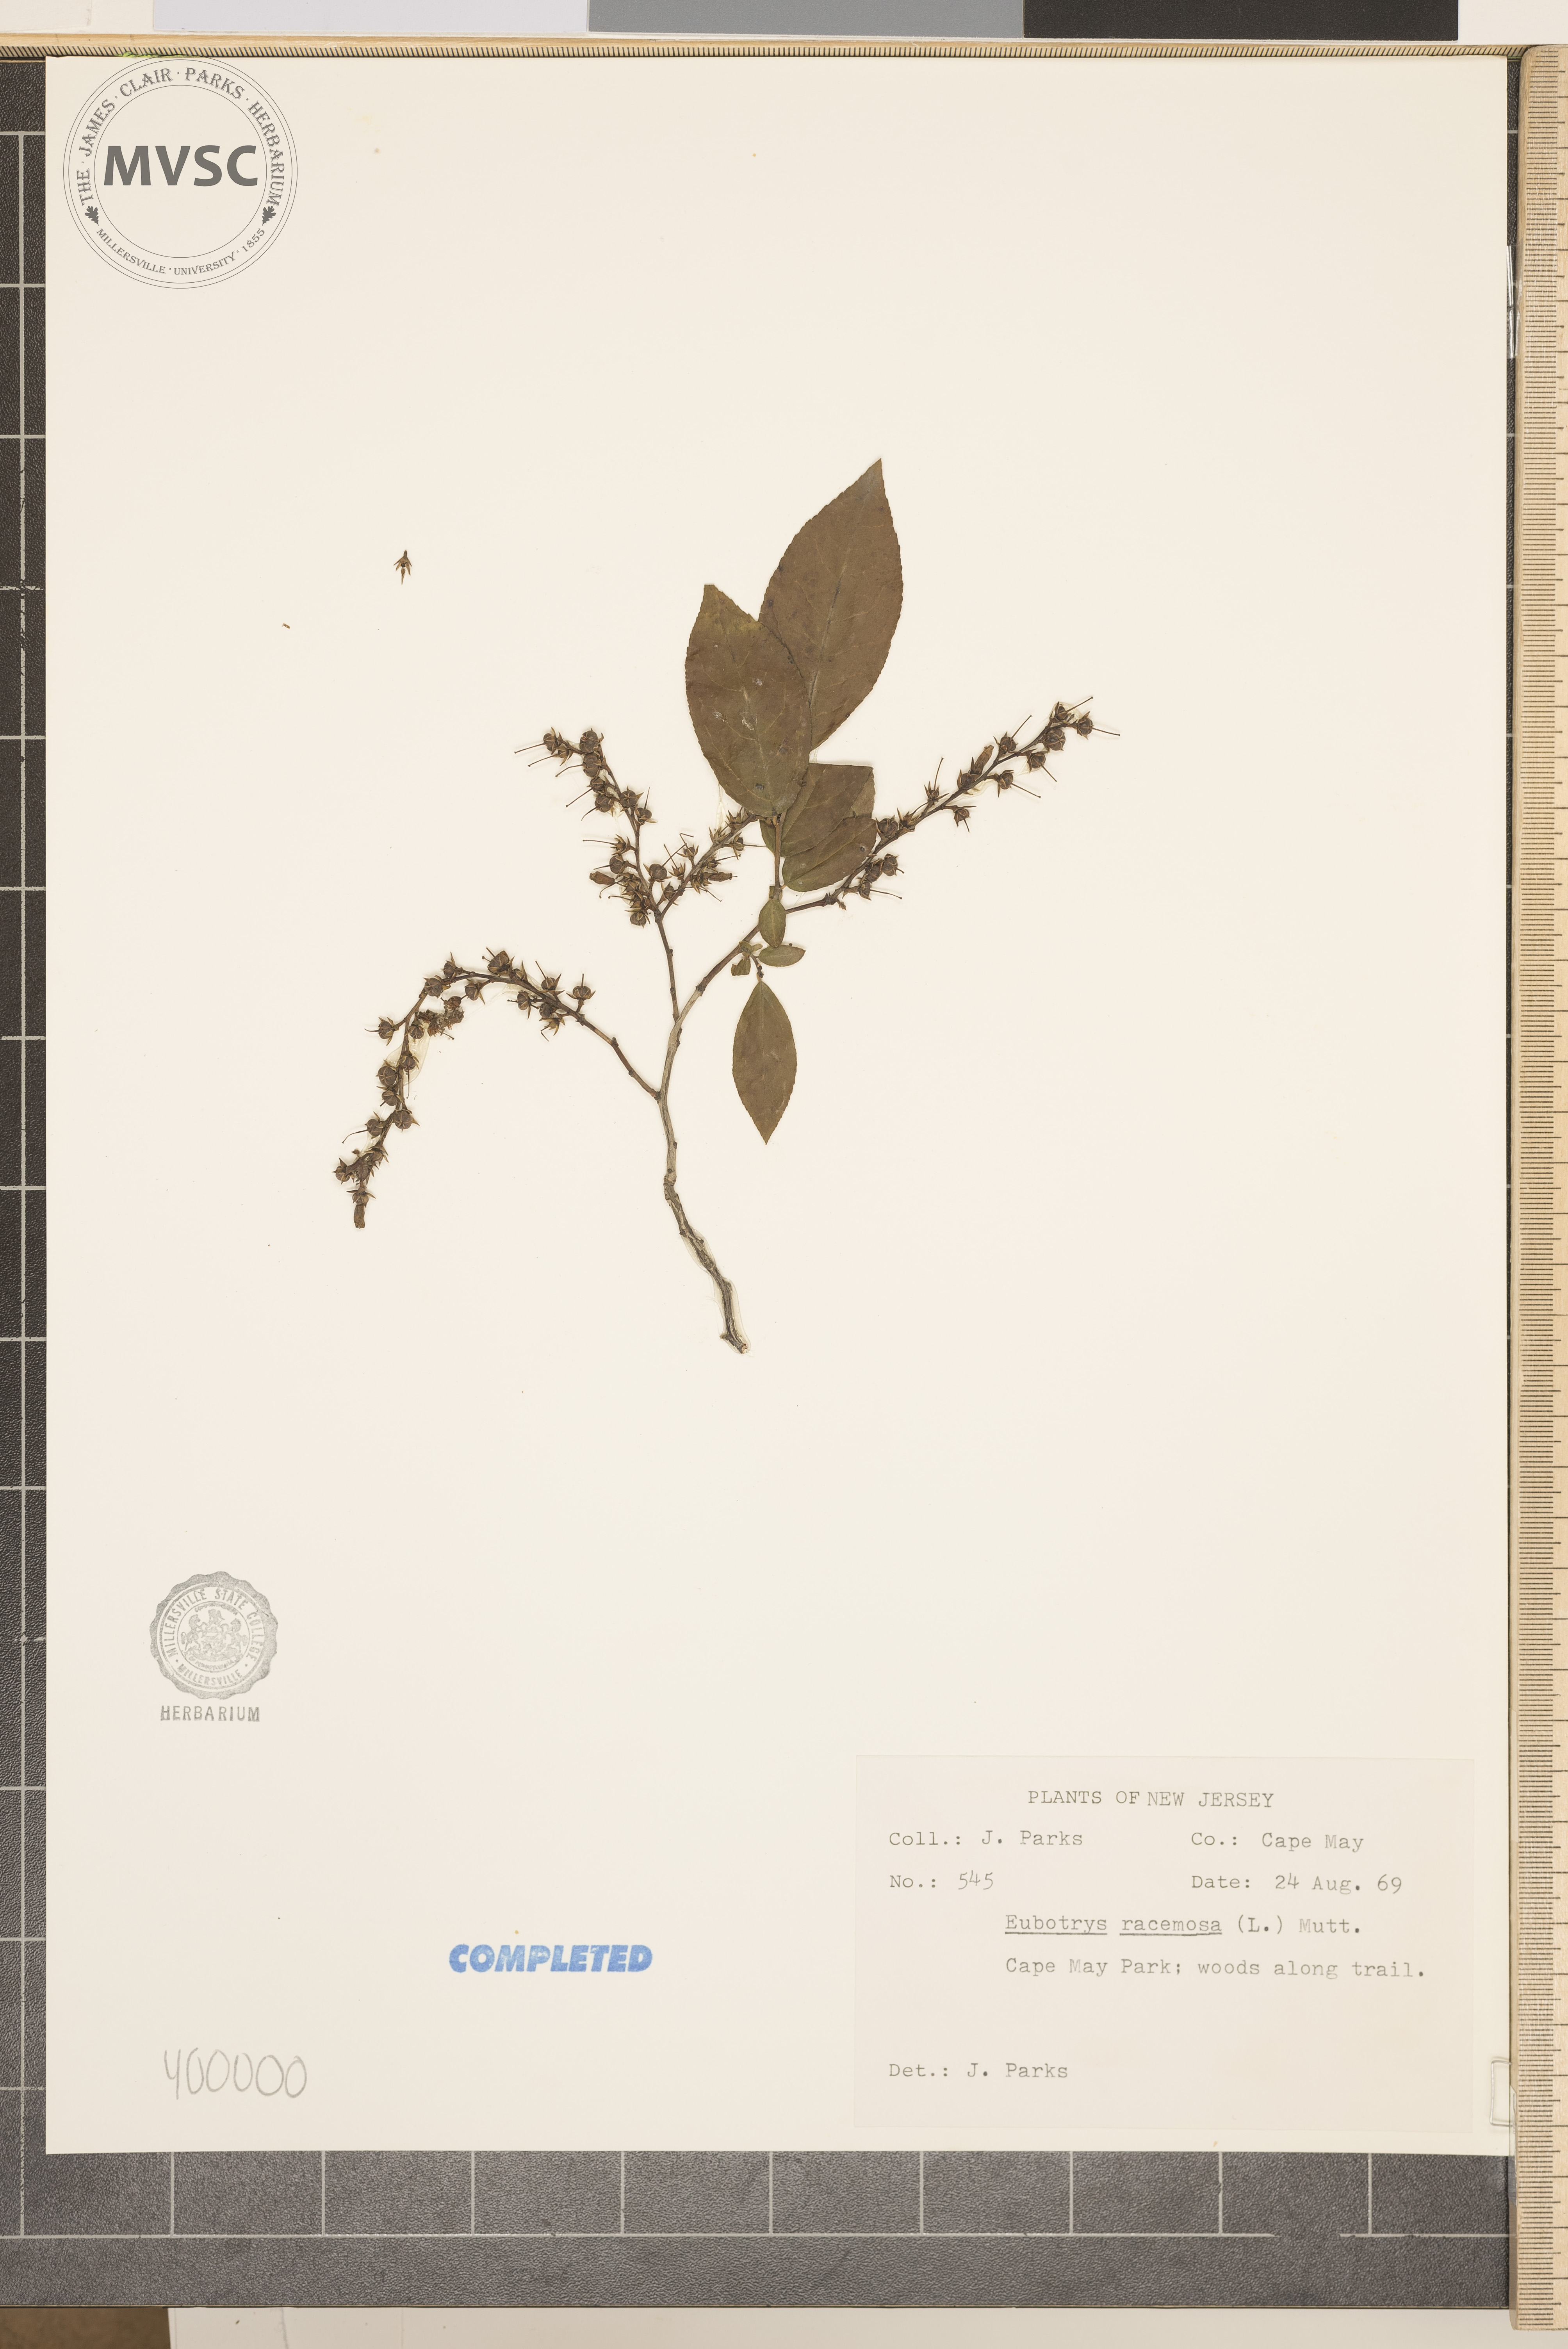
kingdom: Plantae
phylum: Tracheophyta
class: Magnoliopsida
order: Ericales
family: Ericaceae
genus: Eubotrys
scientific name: Eubotrys racemosa
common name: Fetterbush
